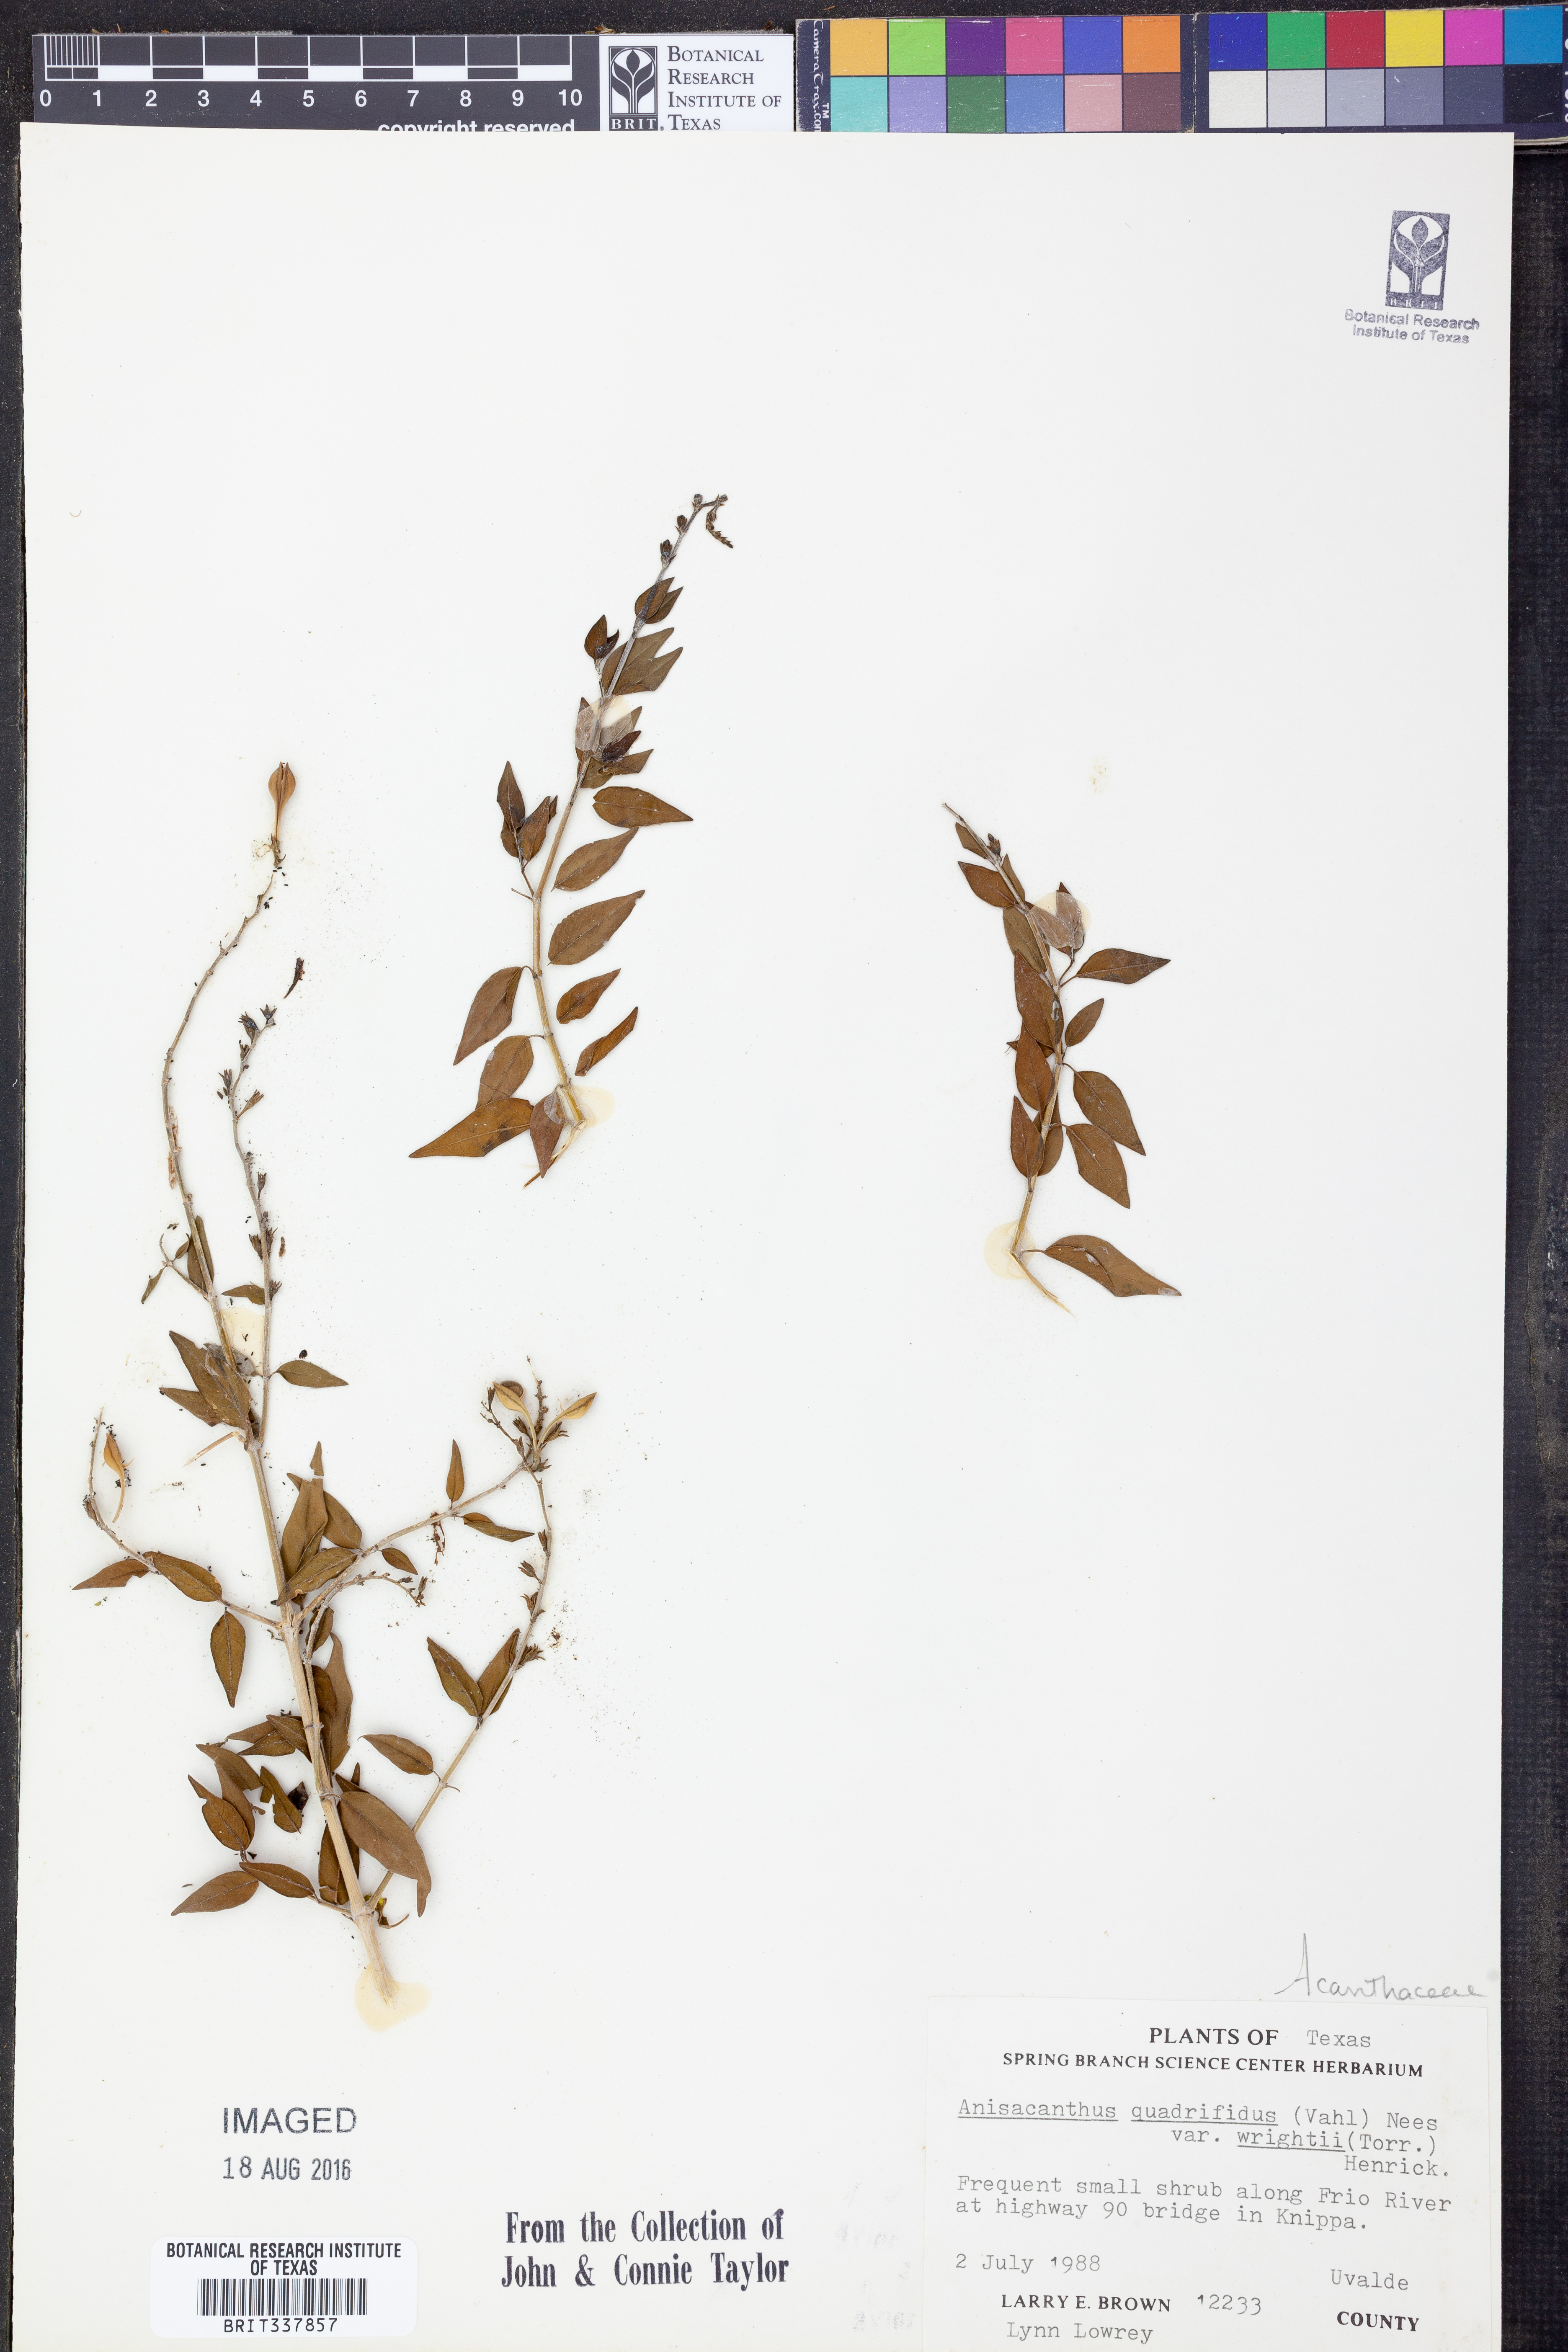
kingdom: Plantae
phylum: Tracheophyta
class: Magnoliopsida
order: Lamiales
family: Acanthaceae
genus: Anisacanthus
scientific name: Anisacanthus quadrifidus
